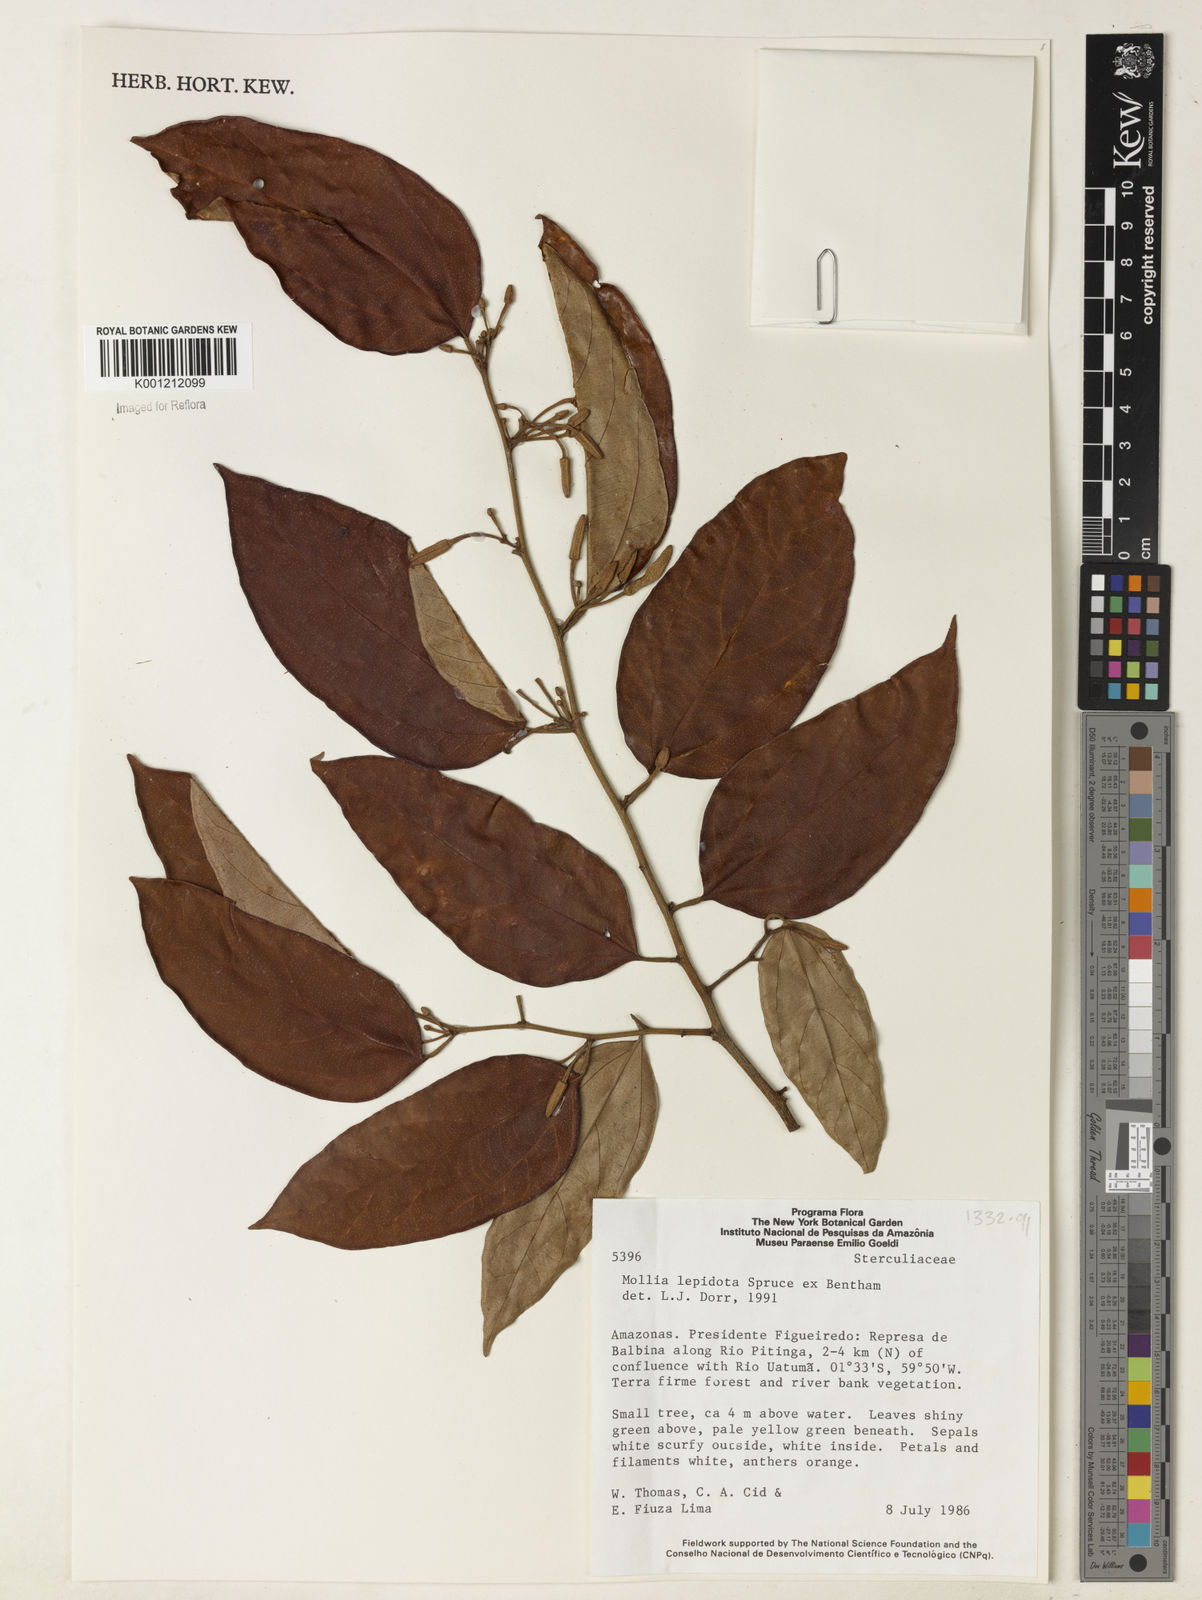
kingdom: Plantae
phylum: Tracheophyta
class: Magnoliopsida
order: Malvales
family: Malvaceae
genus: Mollia
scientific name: Mollia lepidota
